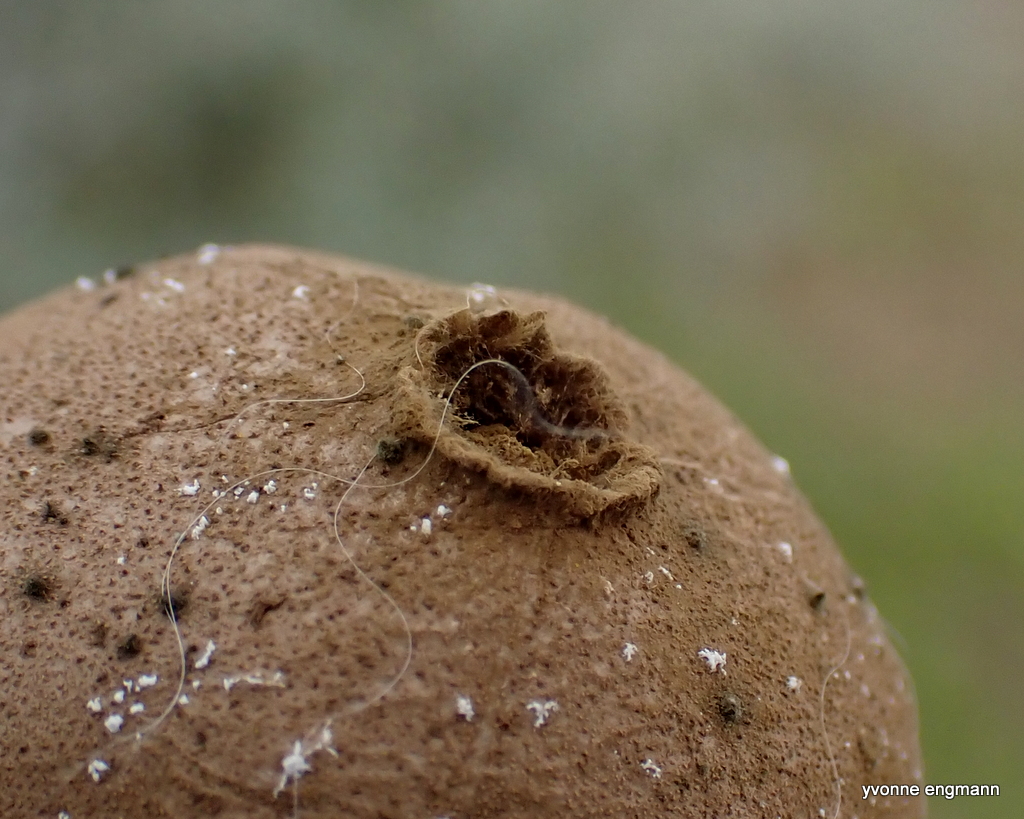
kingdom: Fungi
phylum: Basidiomycota
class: Agaricomycetes
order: Agaricales
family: Lycoperdaceae
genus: Lycoperdon
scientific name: Lycoperdon lividum
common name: mark-støvbold
